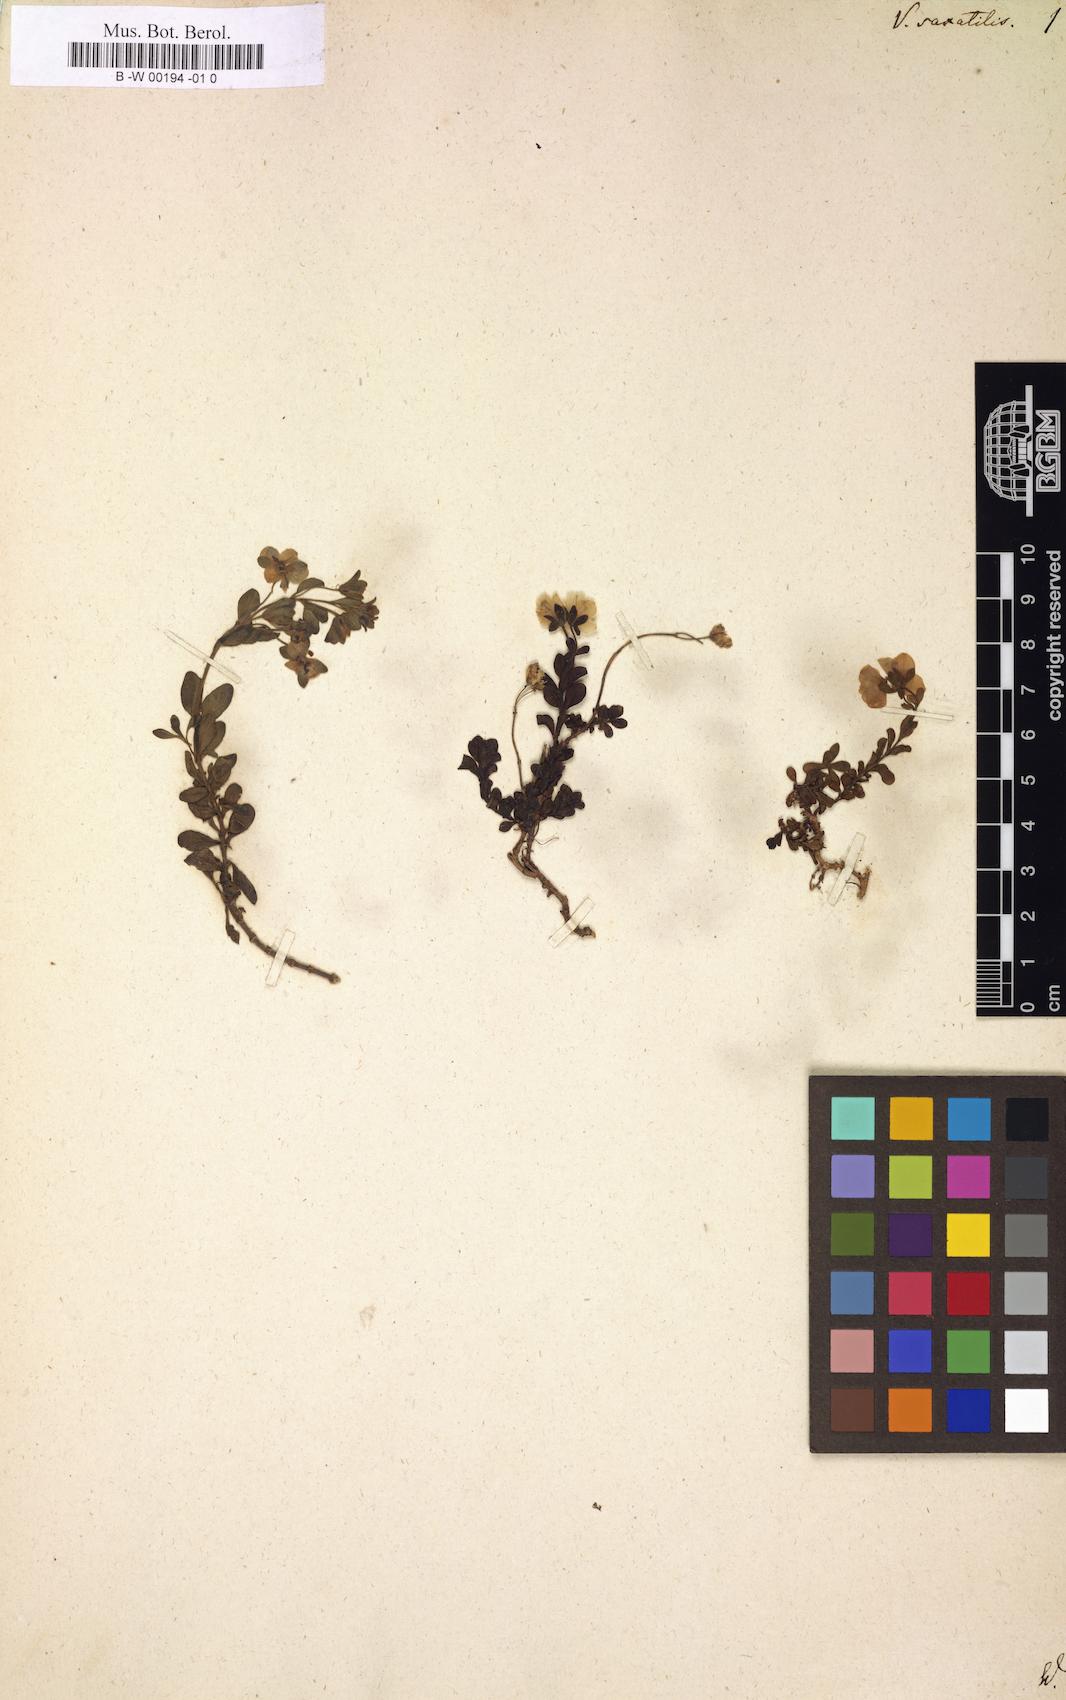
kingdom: Plantae
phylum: Tracheophyta
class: Magnoliopsida
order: Lamiales
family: Plantaginaceae
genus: Veronica
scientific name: Veronica fruticans
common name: Rock speedwell
